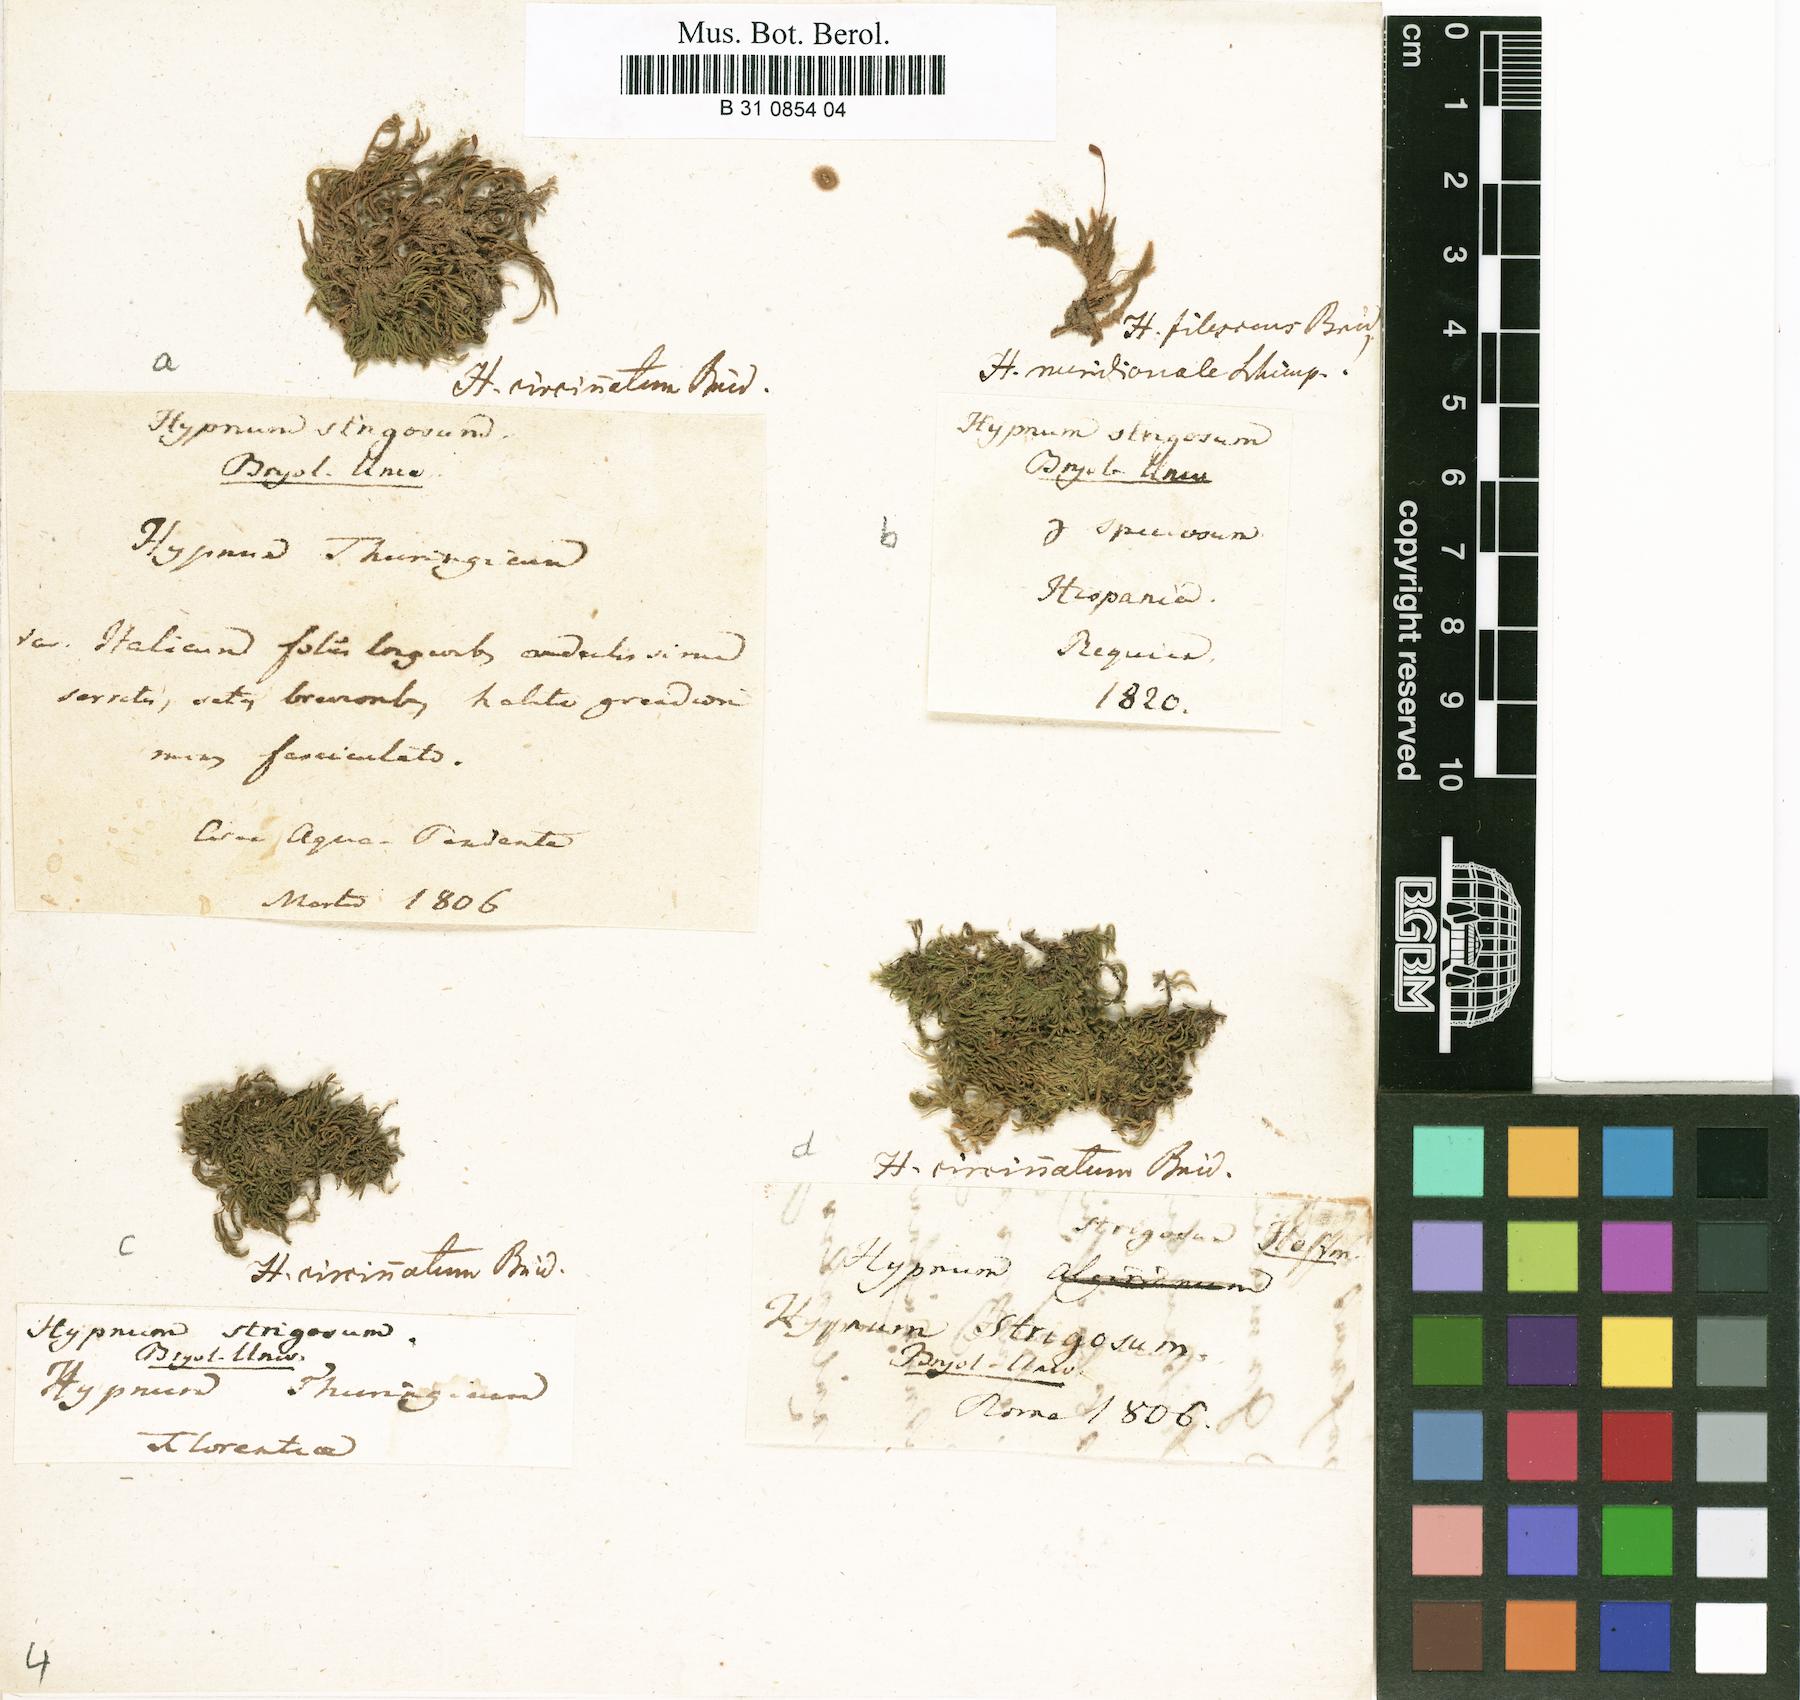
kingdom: Plantae
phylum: Bryophyta
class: Bryopsida
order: Hypnales
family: Brachytheciaceae
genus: Eurhynchiastrum
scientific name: Eurhynchiastrum pulchellum
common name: Elegant beaked moss
